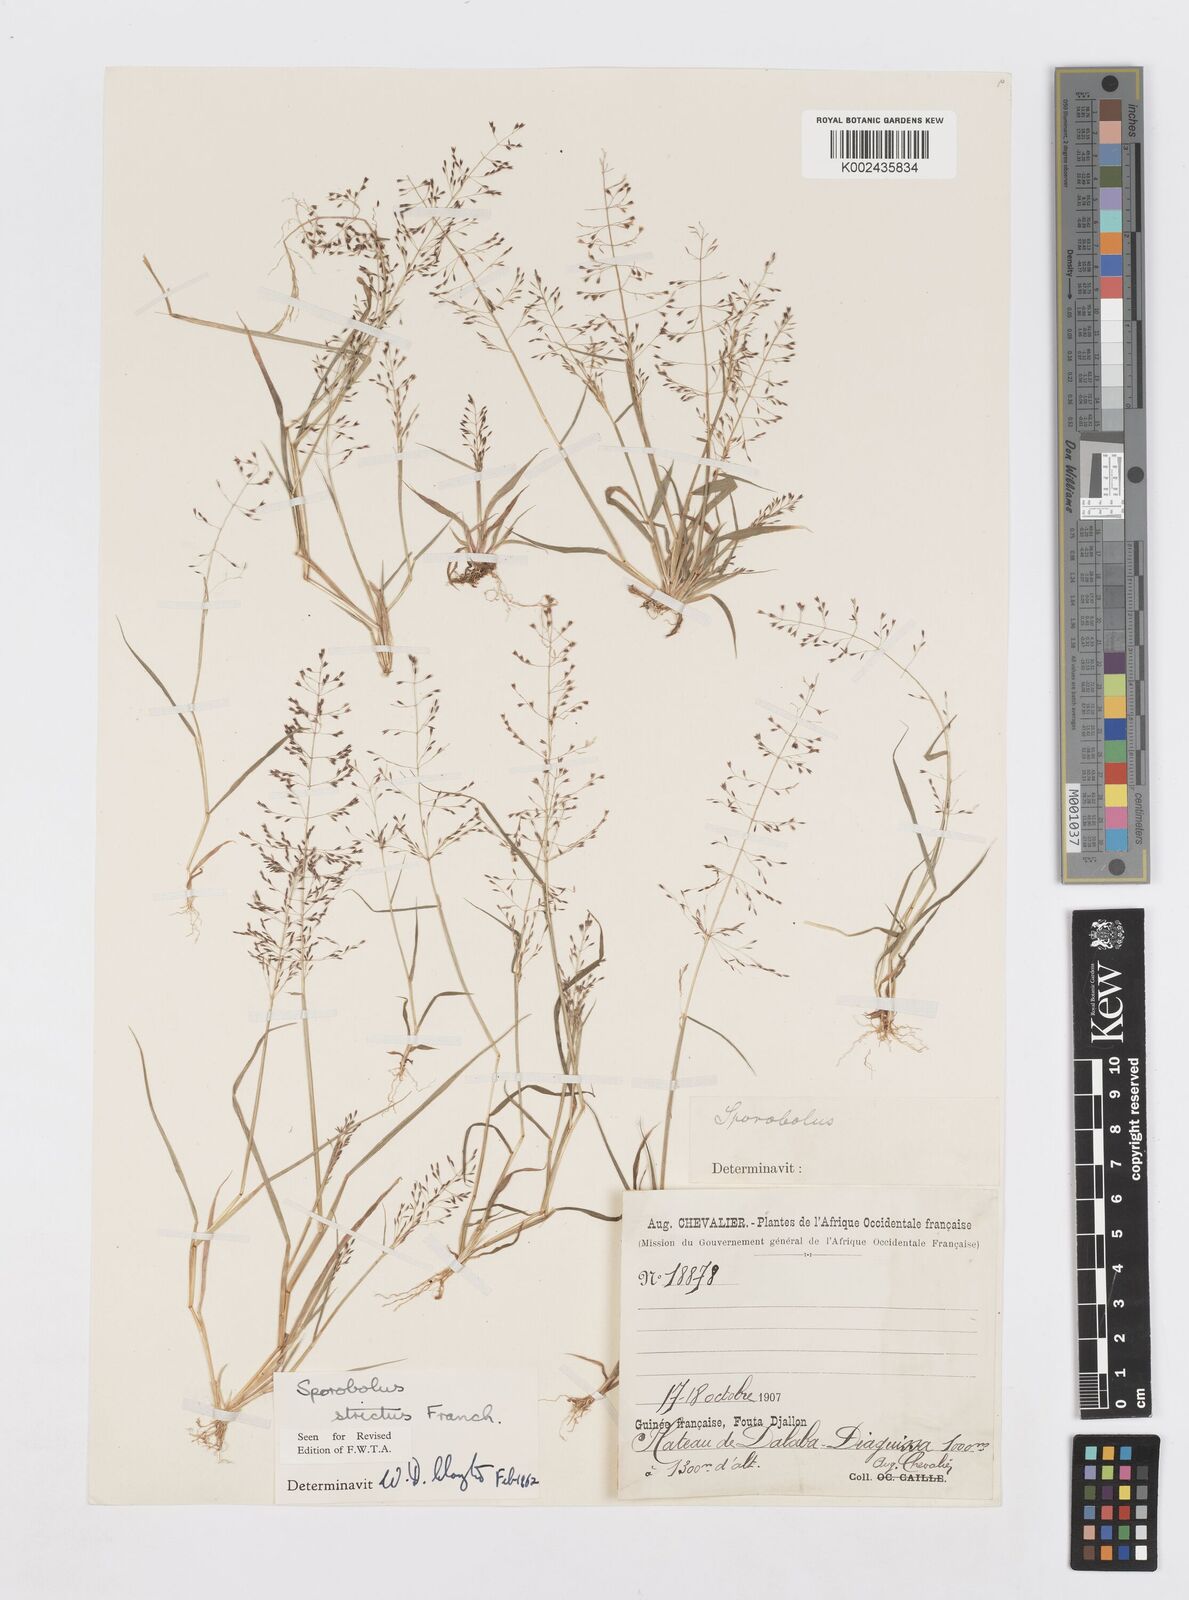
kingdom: Plantae
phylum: Tracheophyta
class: Liliopsida
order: Poales
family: Poaceae
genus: Sporobolus
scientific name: Sporobolus paniculatus
